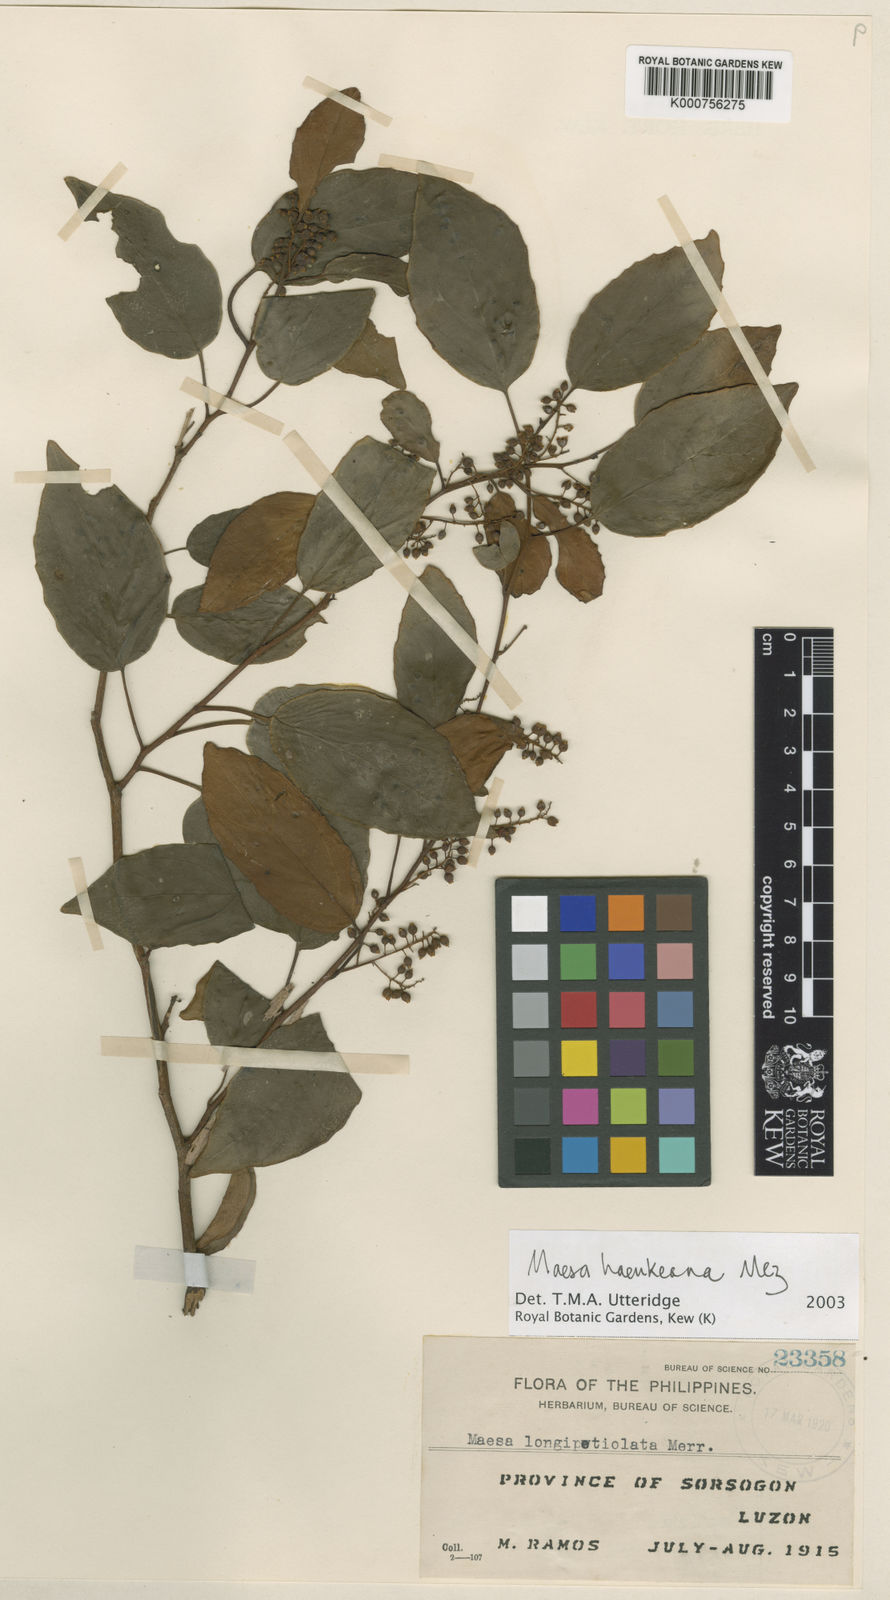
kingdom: Plantae
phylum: Tracheophyta
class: Magnoliopsida
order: Ericales
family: Primulaceae
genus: Maesa
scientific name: Maesa haenkeana
